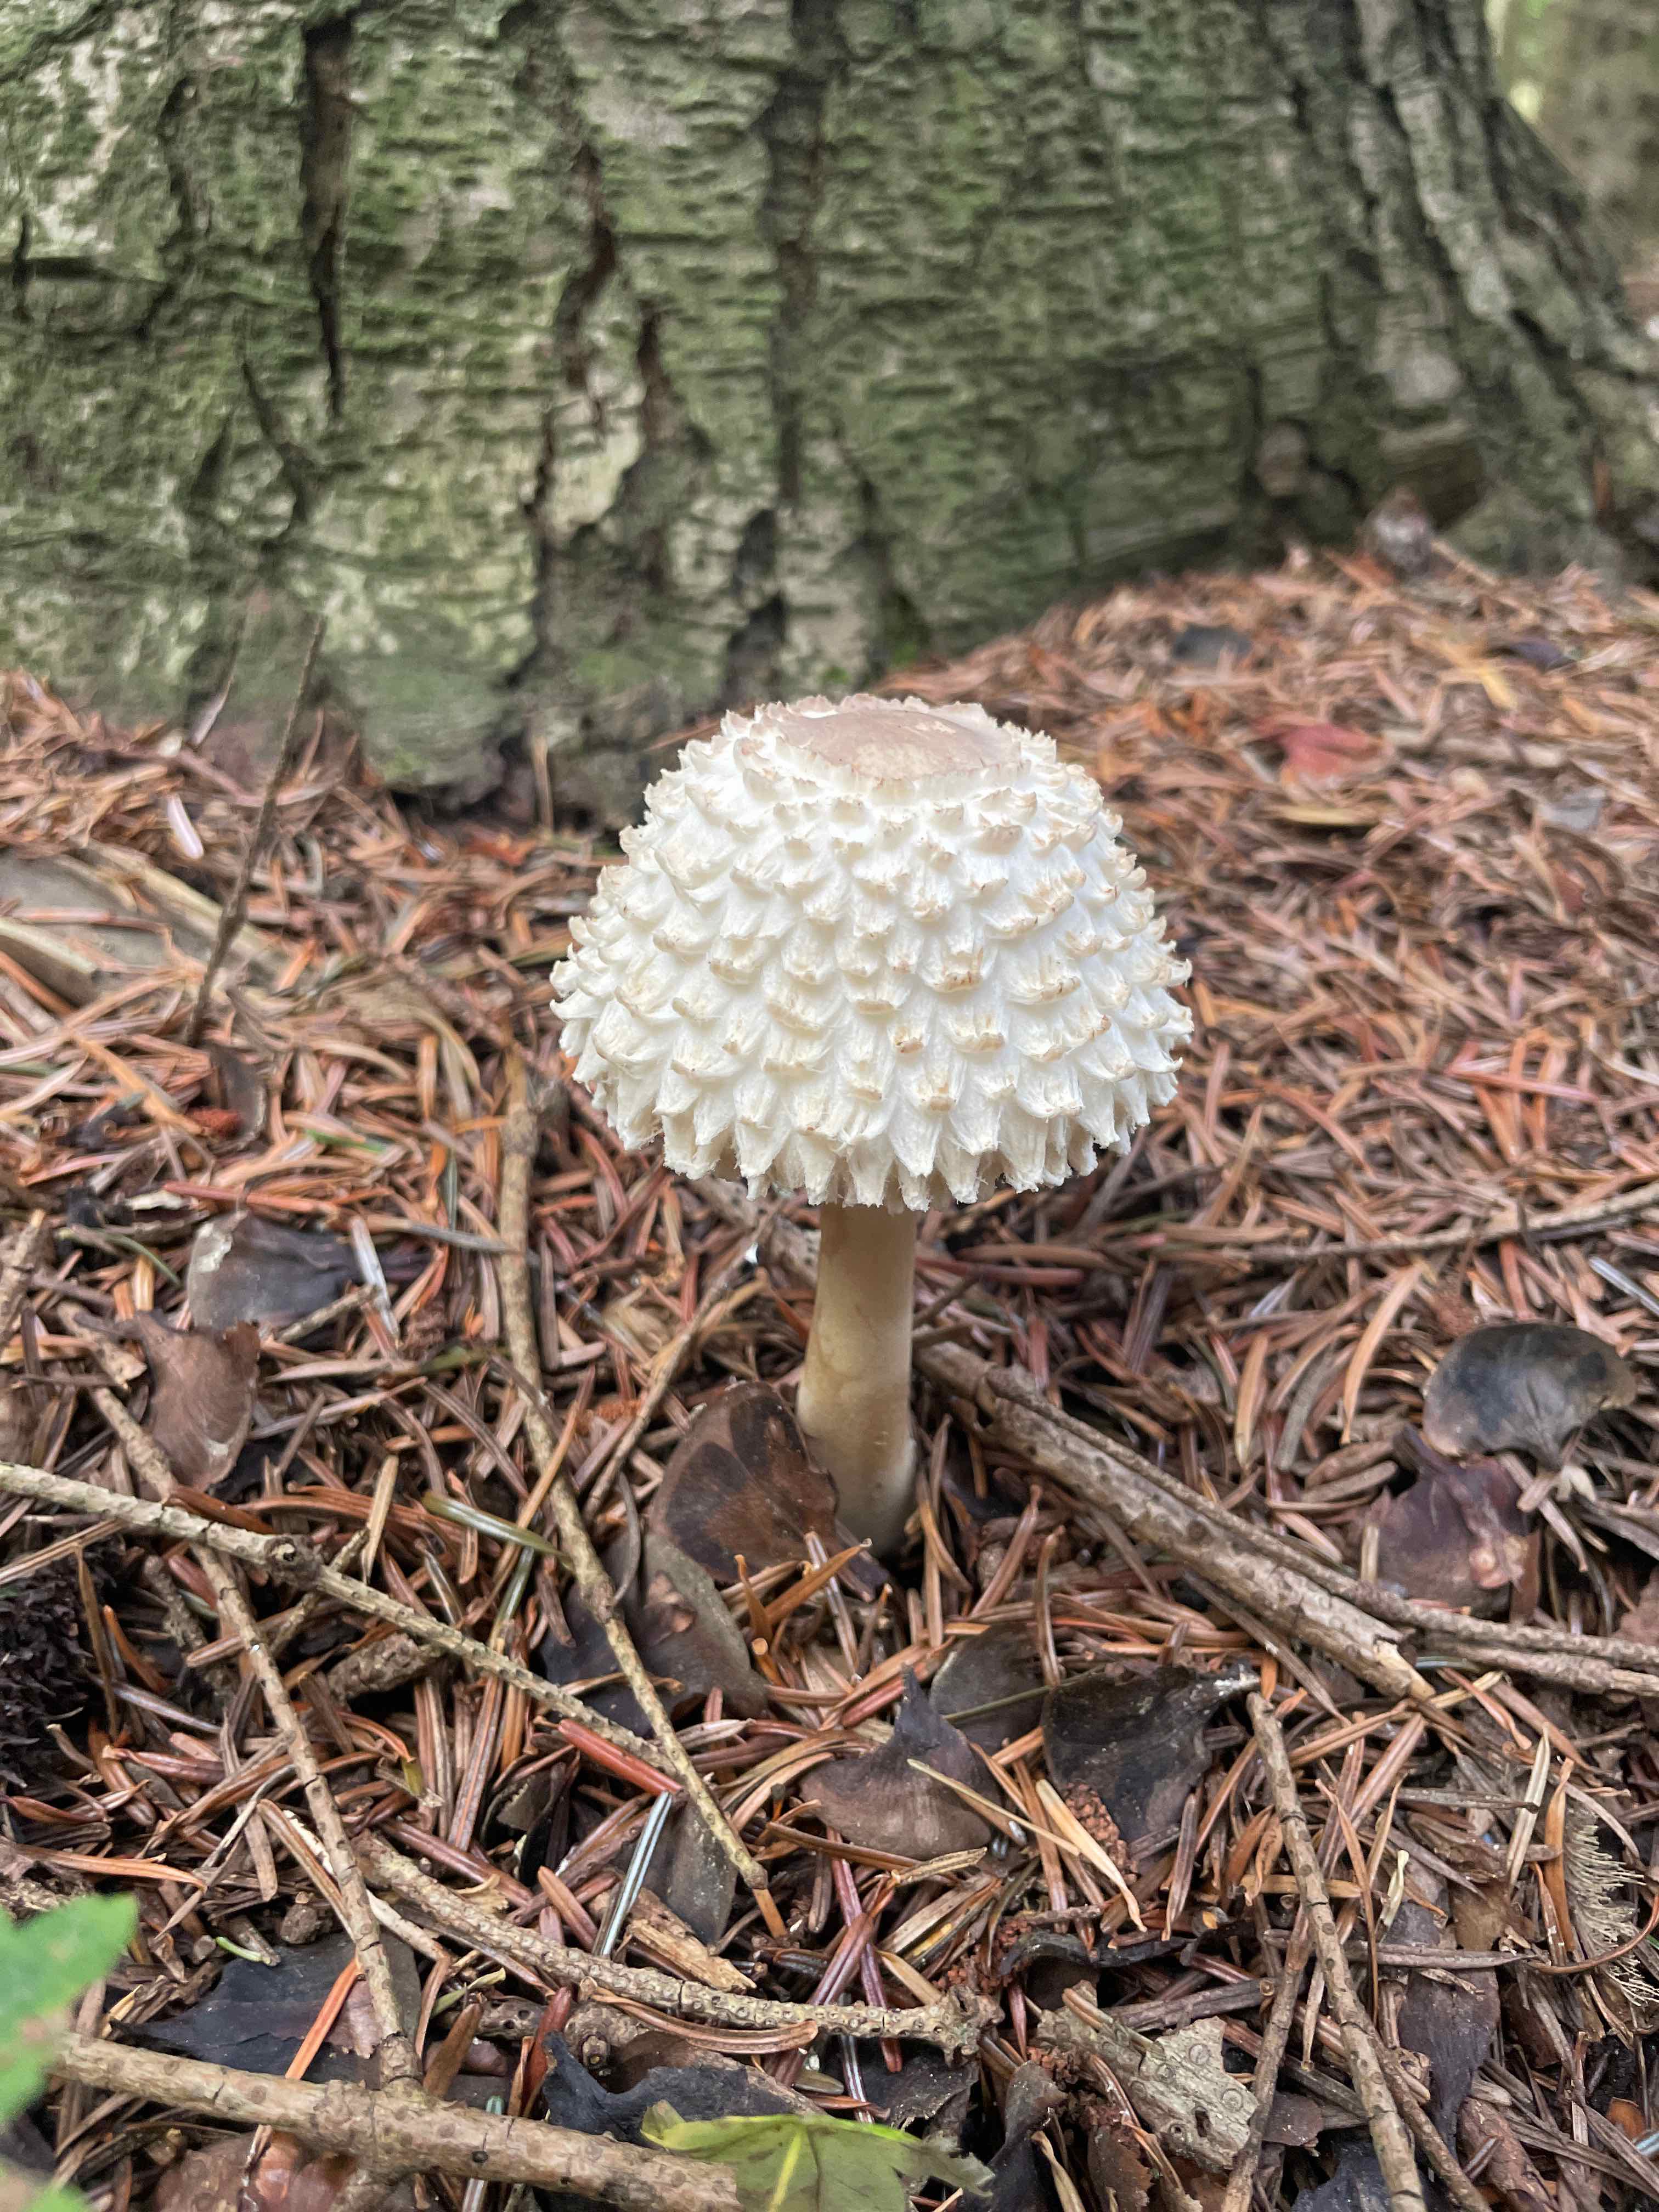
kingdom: Fungi
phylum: Basidiomycota
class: Agaricomycetes
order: Agaricales
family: Agaricaceae
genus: Leucoagaricus
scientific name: Leucoagaricus nympharum
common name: gran-silkehat
